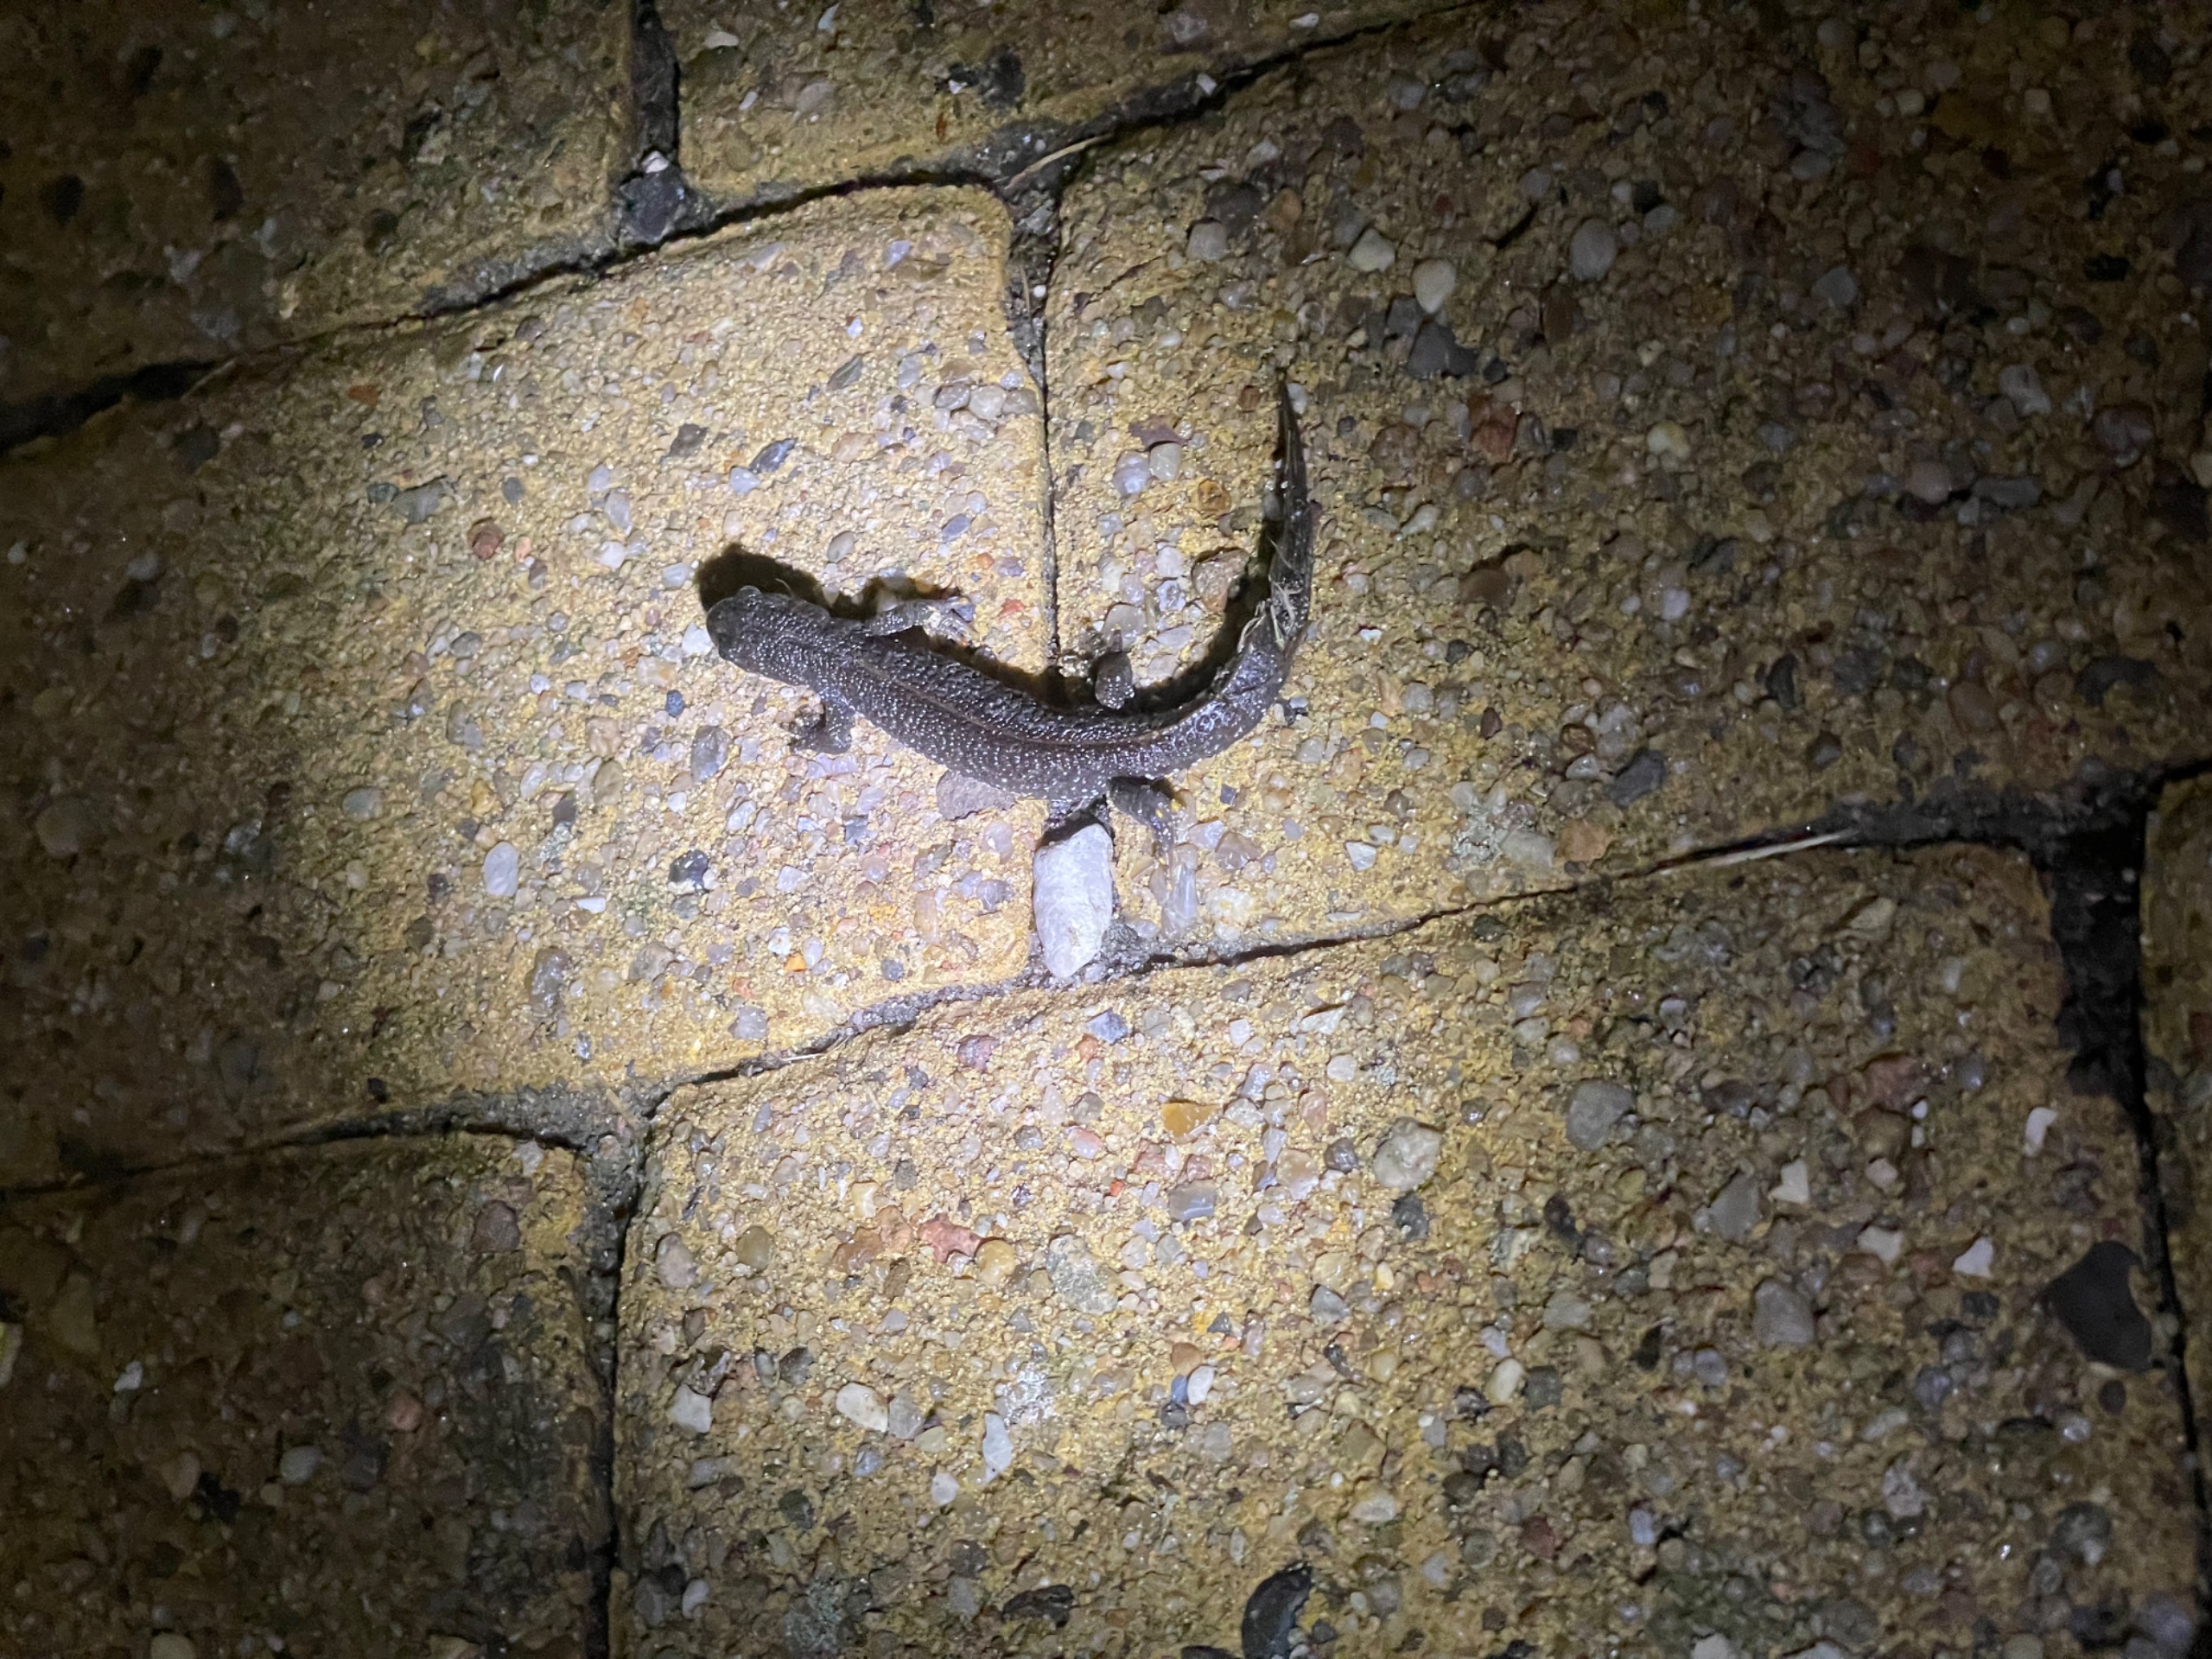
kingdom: Animalia
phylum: Chordata
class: Amphibia
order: Caudata
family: Salamandridae
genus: Triturus
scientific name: Triturus cristatus
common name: Stor vandsalamander
